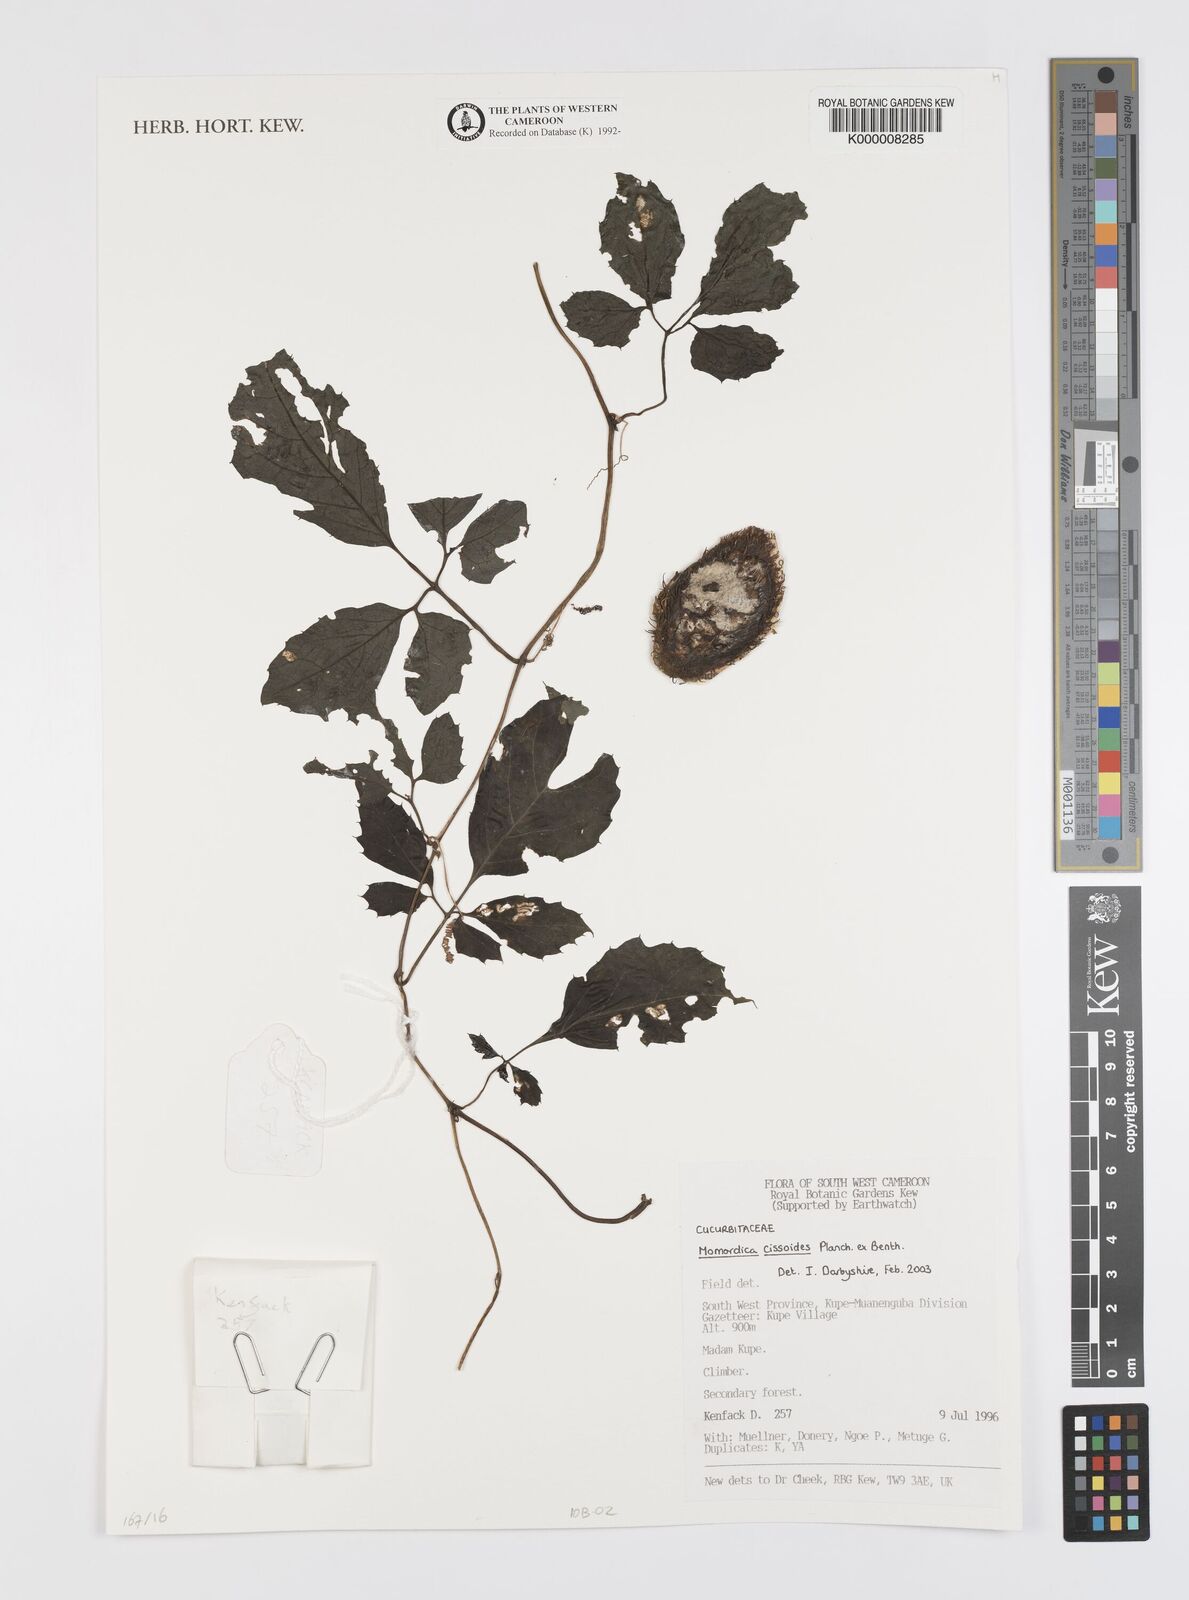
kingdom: Plantae
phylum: Tracheophyta
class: Magnoliopsida
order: Cucurbitales
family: Cucurbitaceae
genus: Momordica
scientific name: Momordica cissoides
